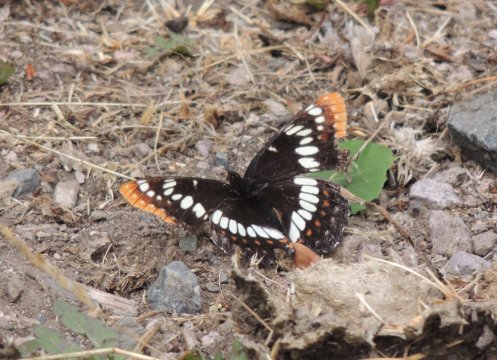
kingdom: Animalia
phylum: Arthropoda
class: Insecta
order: Lepidoptera
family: Nymphalidae
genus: Limenitis
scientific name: Limenitis lorquini
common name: Lorquin's Admiral
